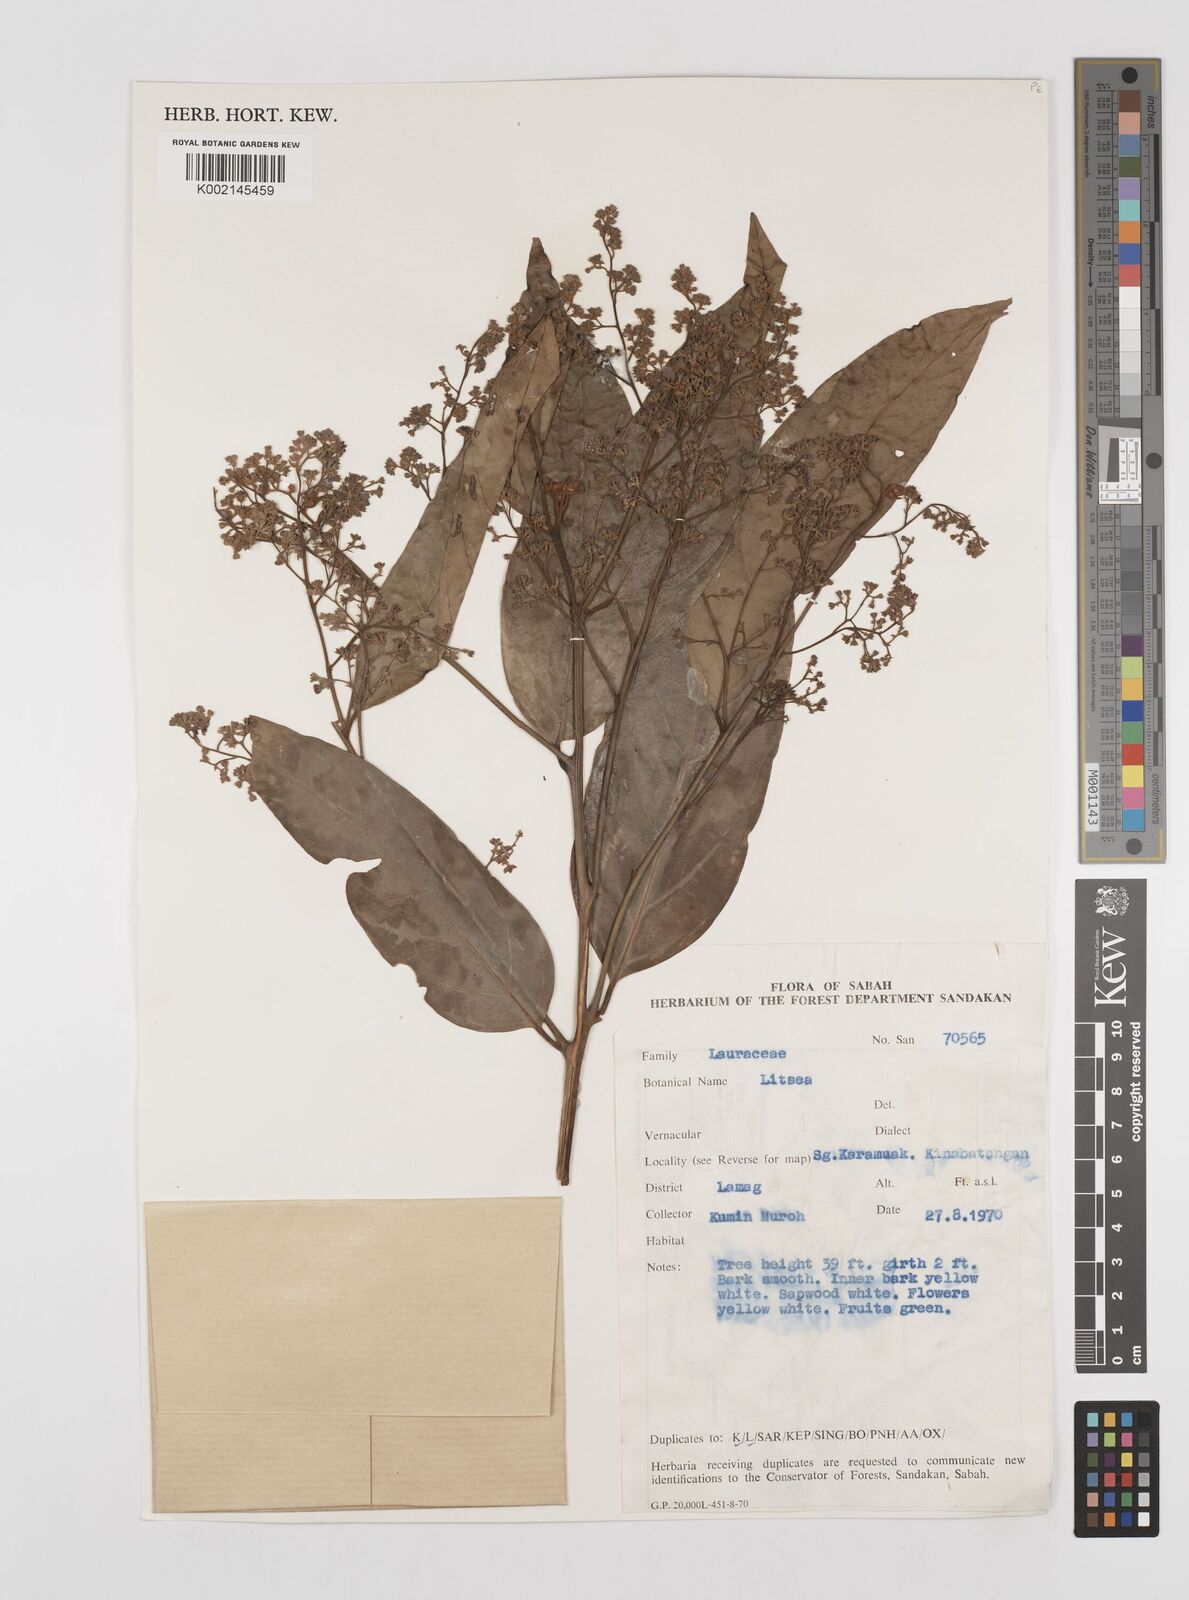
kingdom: Plantae
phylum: Tracheophyta
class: Magnoliopsida
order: Laurales
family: Lauraceae
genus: Litsea
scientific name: Litsea
